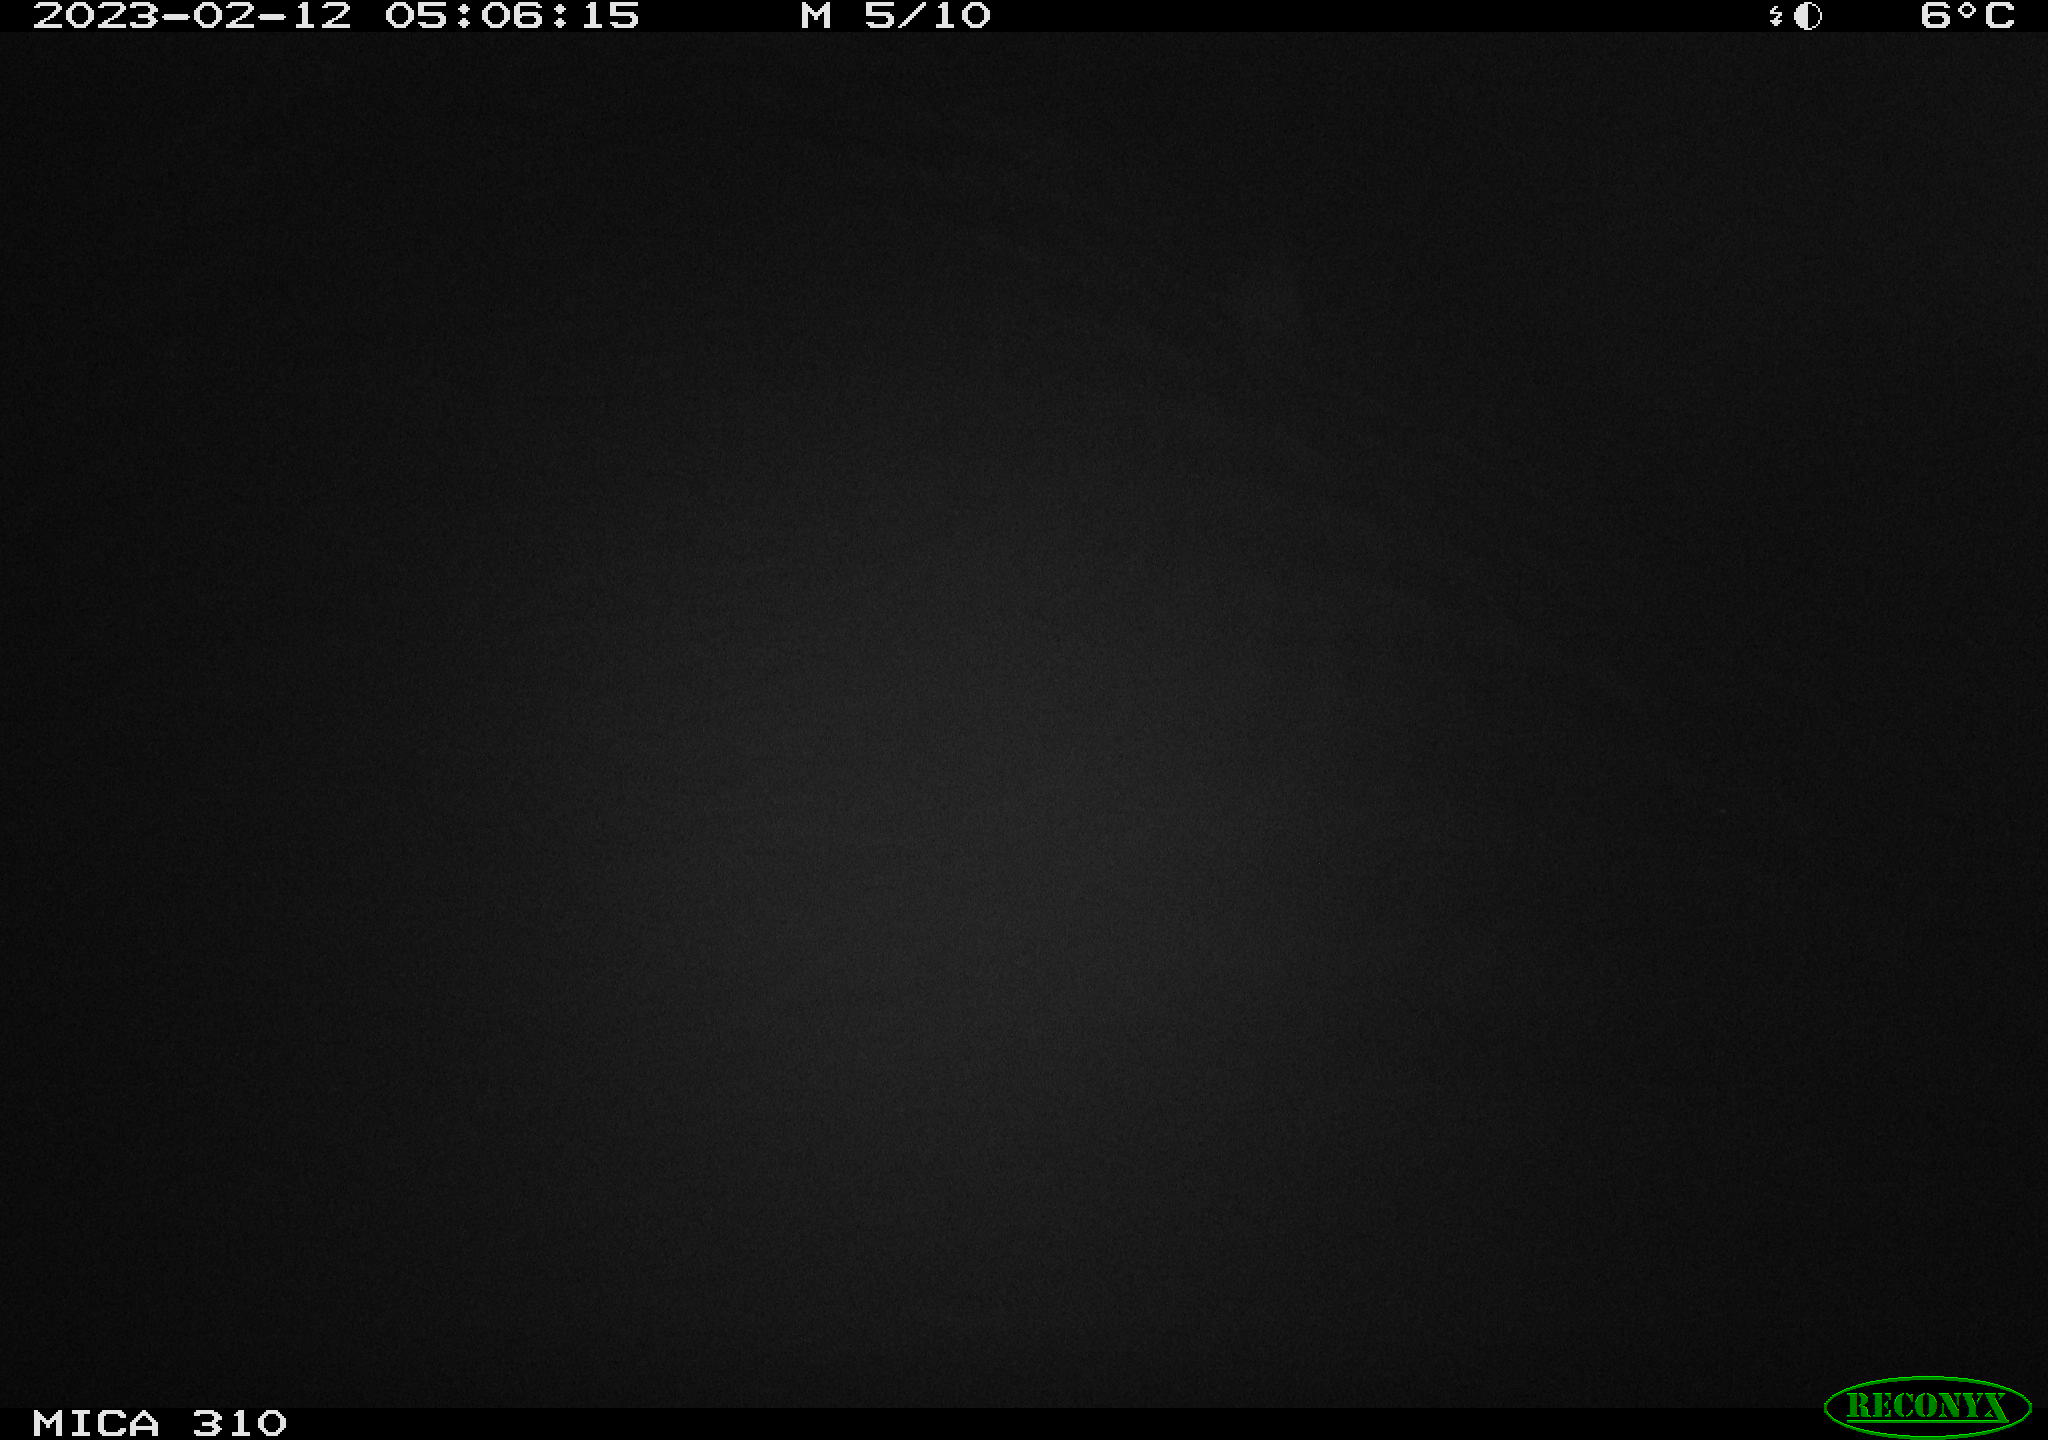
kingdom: Animalia
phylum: Chordata
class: Mammalia
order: Rodentia
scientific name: Rodentia
